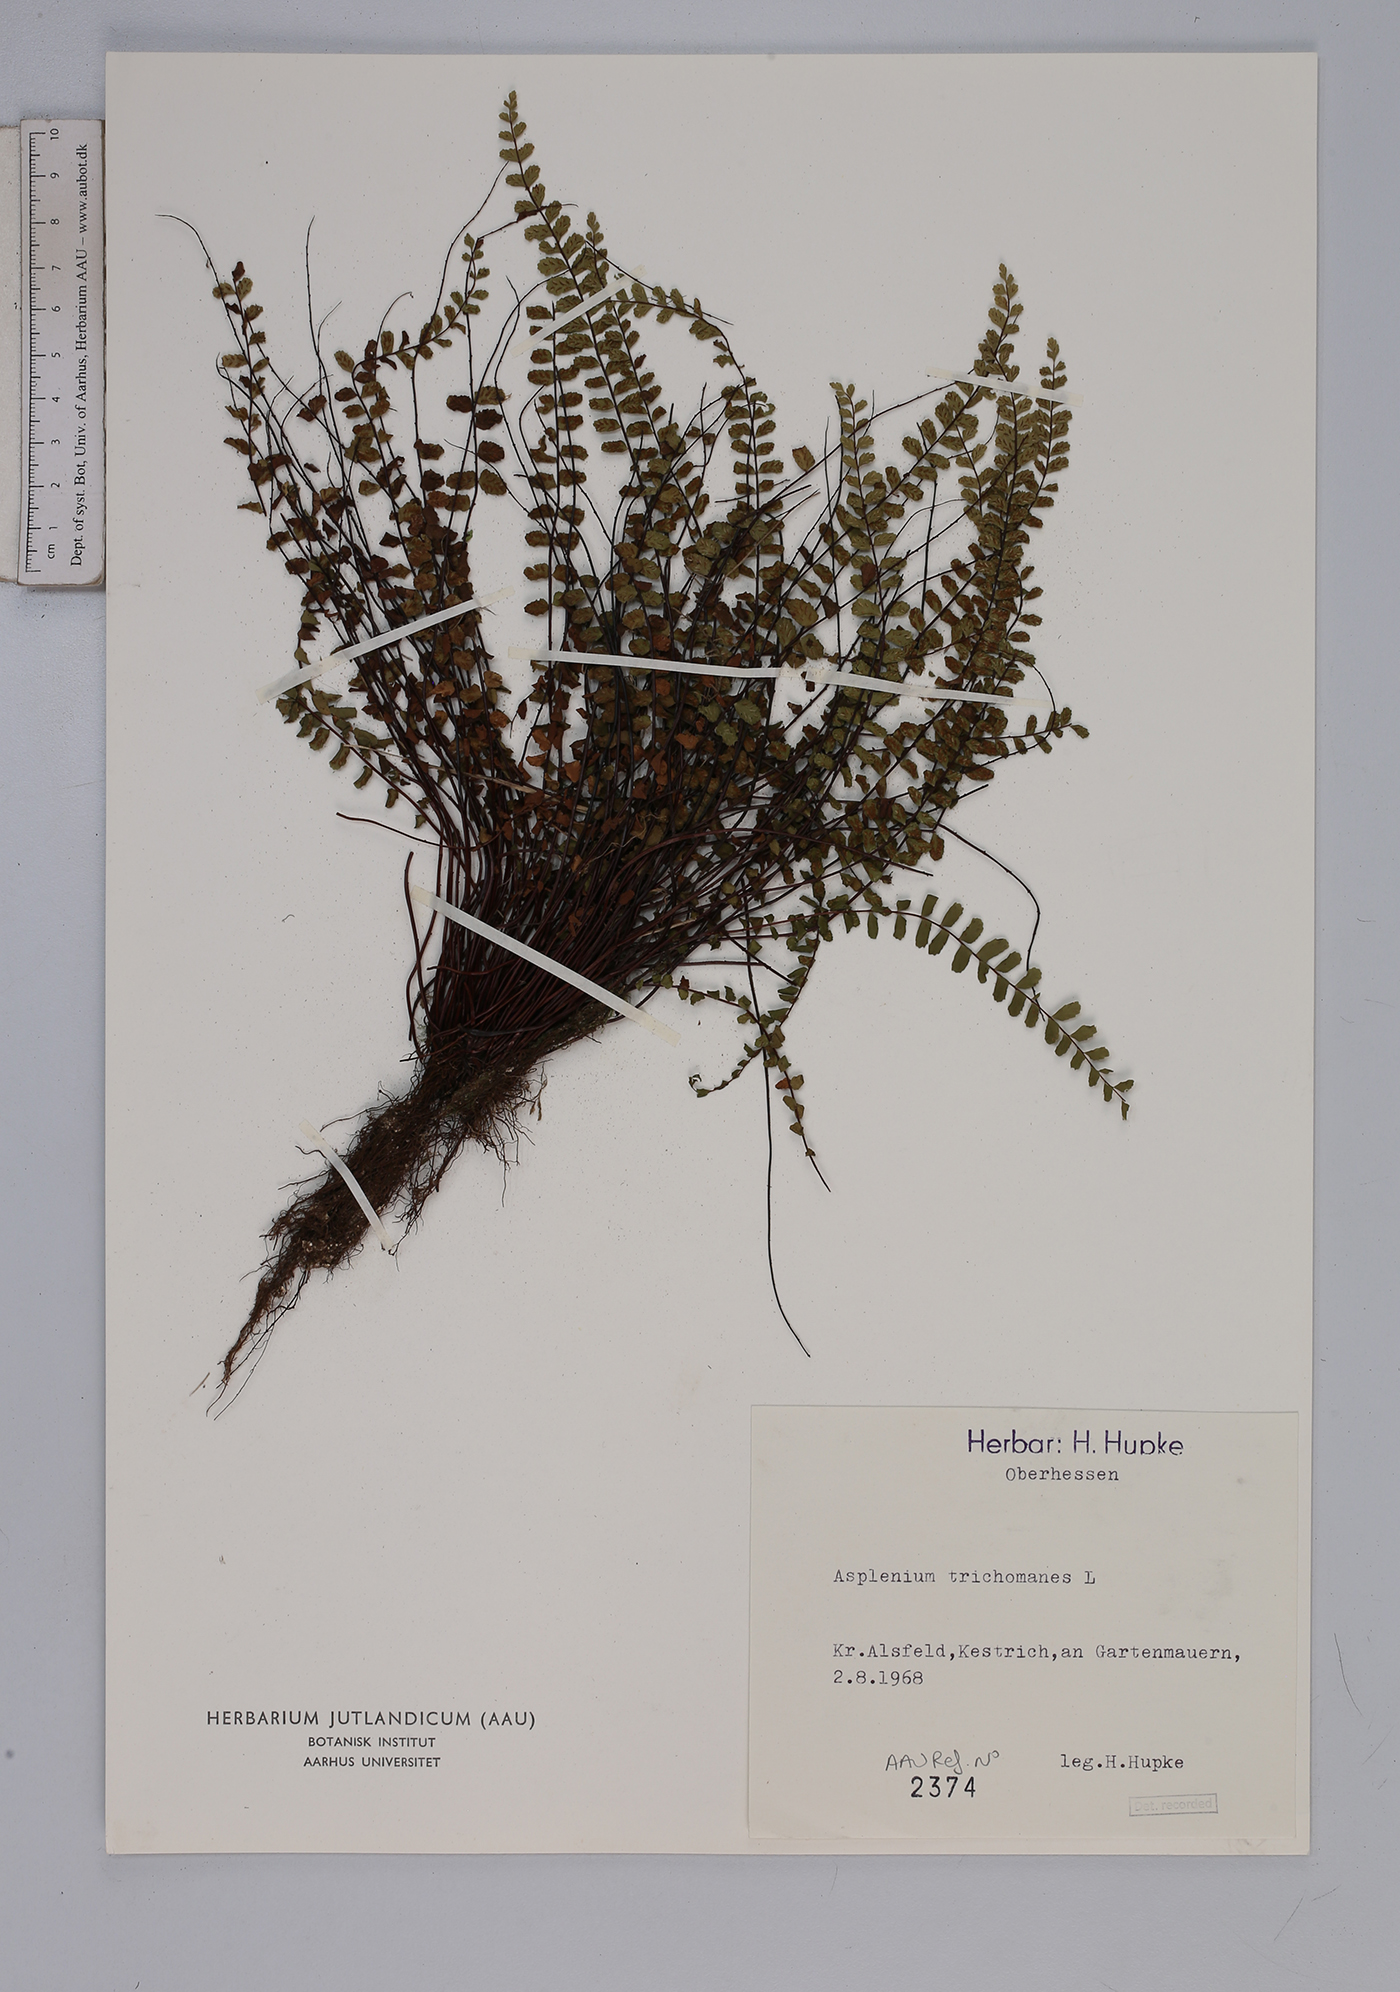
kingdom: Plantae
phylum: Tracheophyta
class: Polypodiopsida
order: Polypodiales
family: Aspleniaceae
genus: Asplenium
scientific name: Asplenium trichomanes
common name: Maidenhair spleenwort
